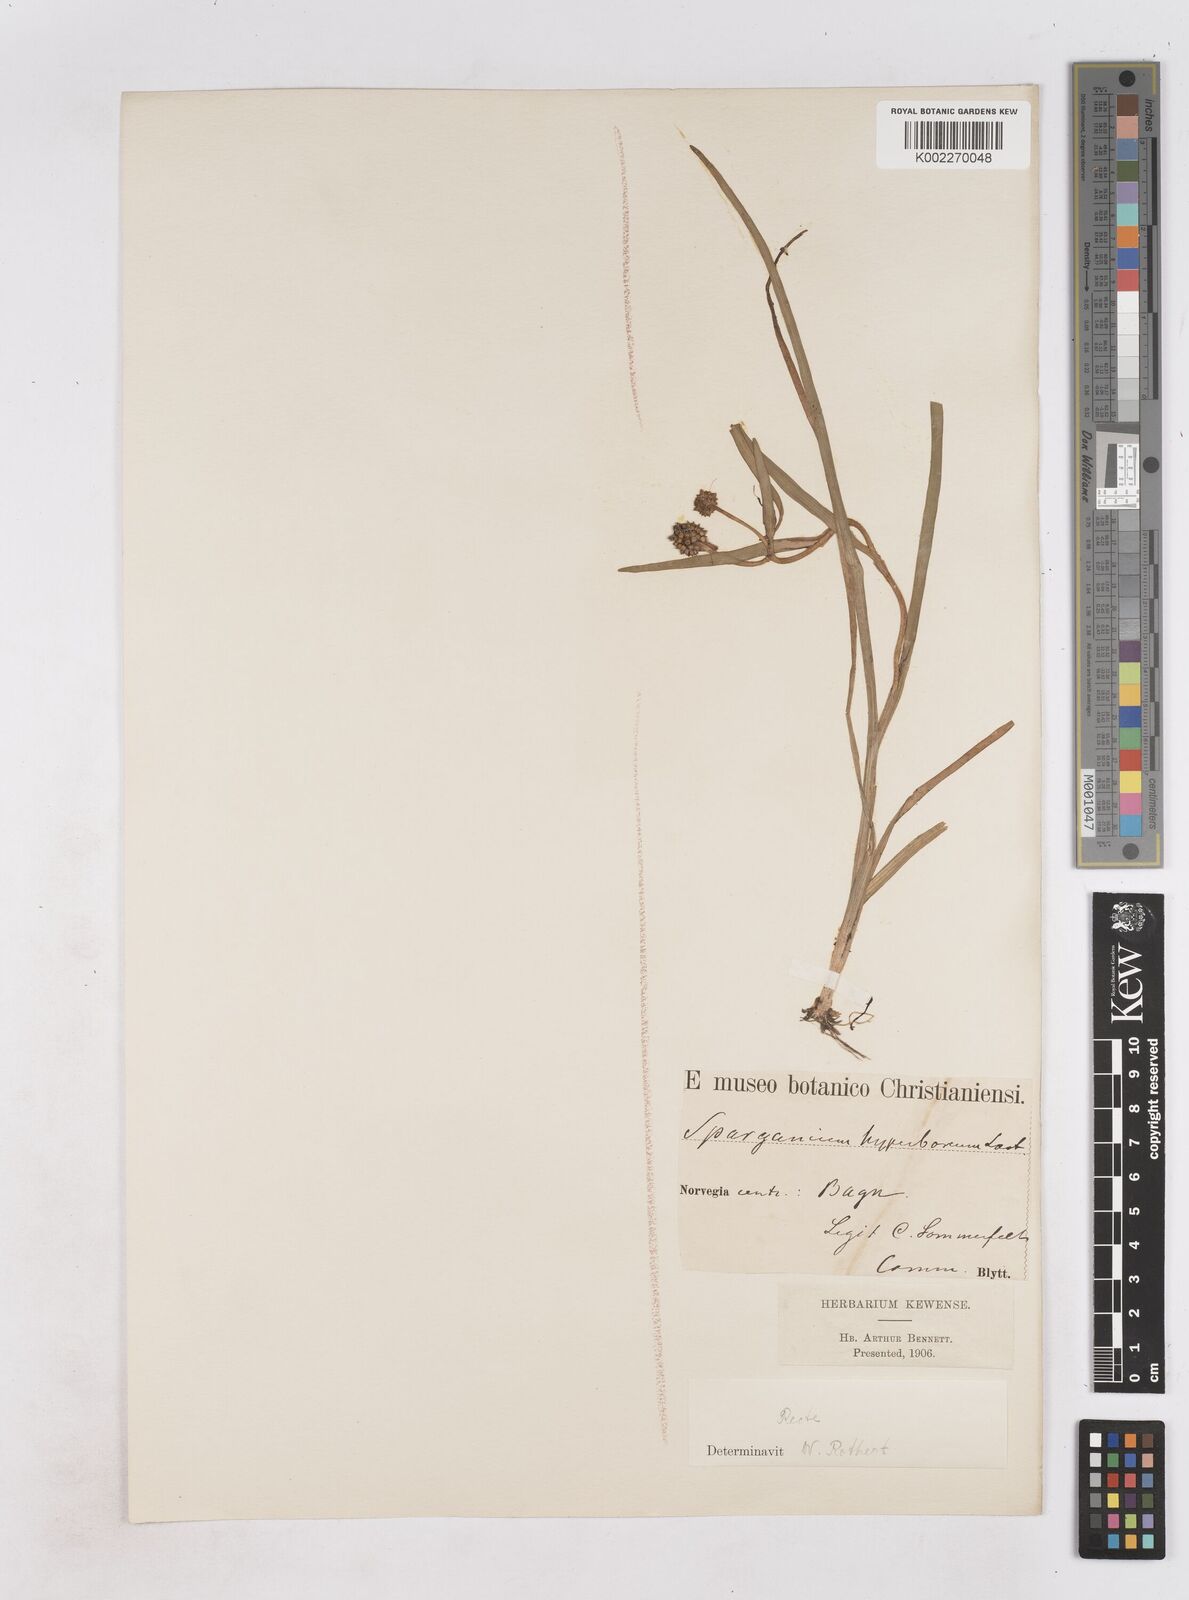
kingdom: Plantae
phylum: Tracheophyta
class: Liliopsida
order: Poales
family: Typhaceae
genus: Sparganium
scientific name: Sparganium hyperboreum
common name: Arctic burreed
